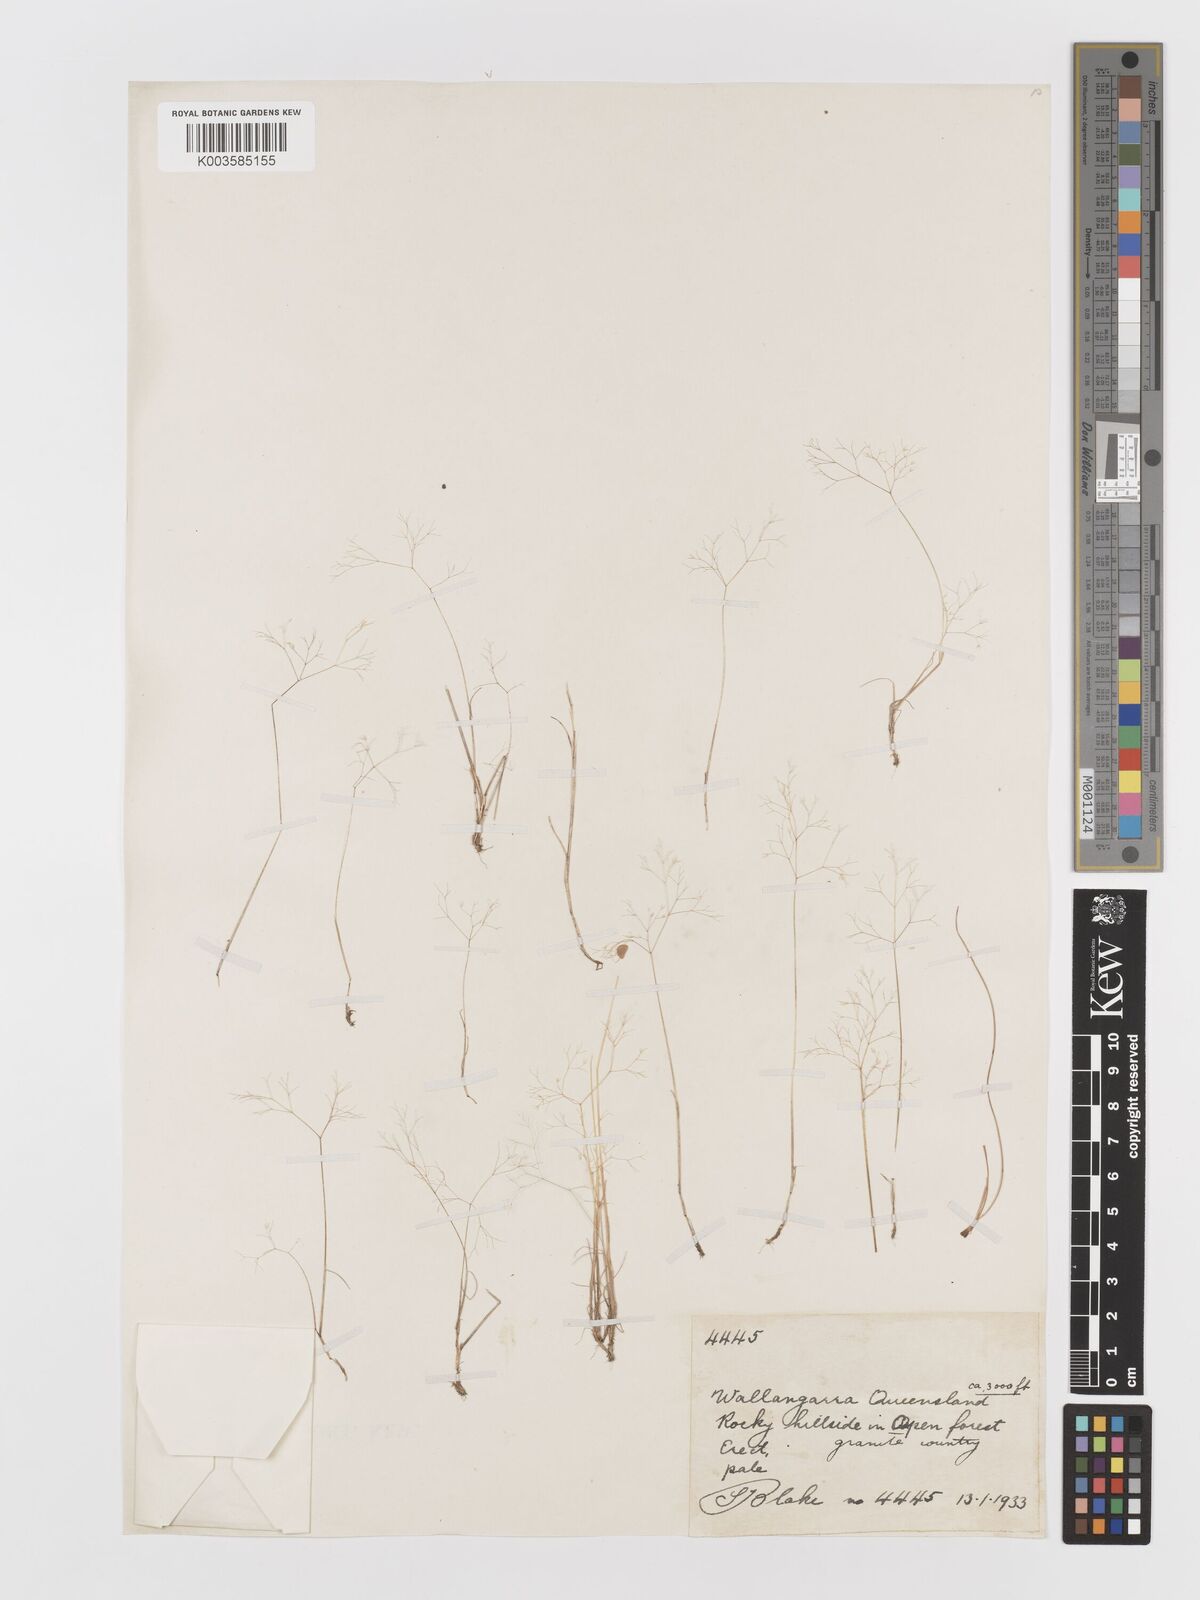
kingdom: Plantae
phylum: Tracheophyta
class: Liliopsida
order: Poales
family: Poaceae
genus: Aira
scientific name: Aira elegans
